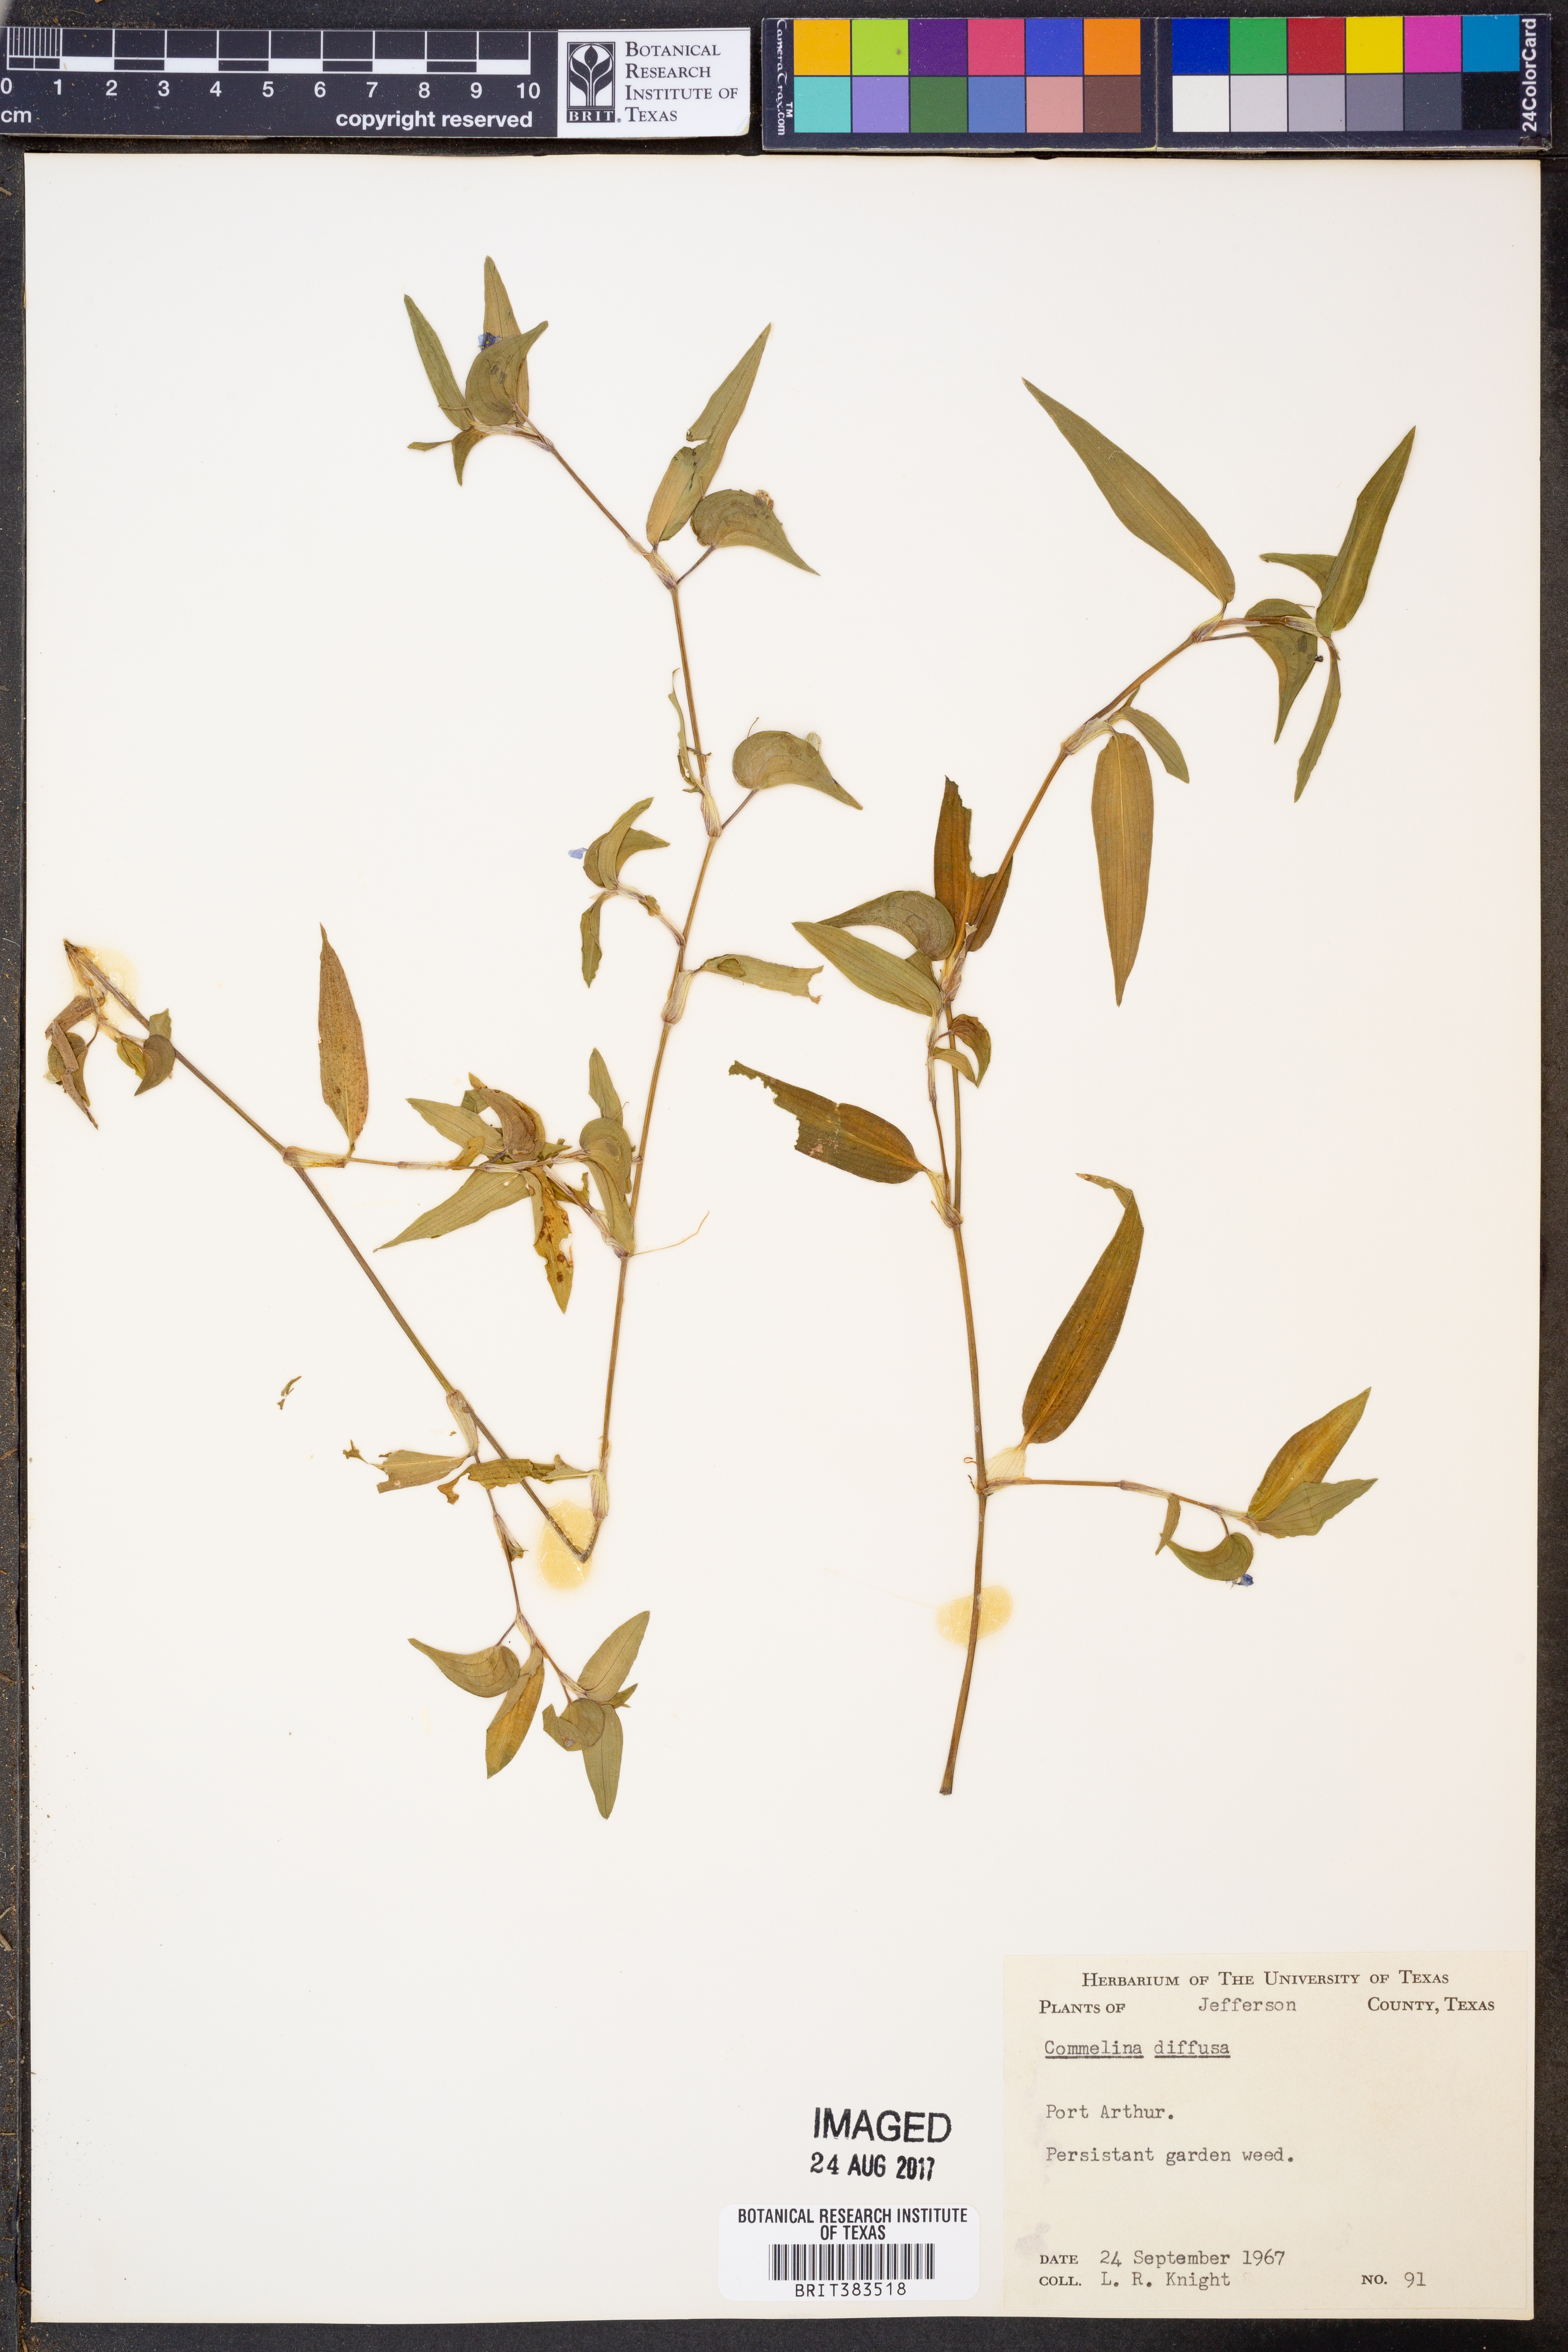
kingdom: Plantae
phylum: Tracheophyta
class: Liliopsida
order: Commelinales
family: Commelinaceae
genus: Commelina
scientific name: Commelina diffusa
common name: Climbing dayflower
